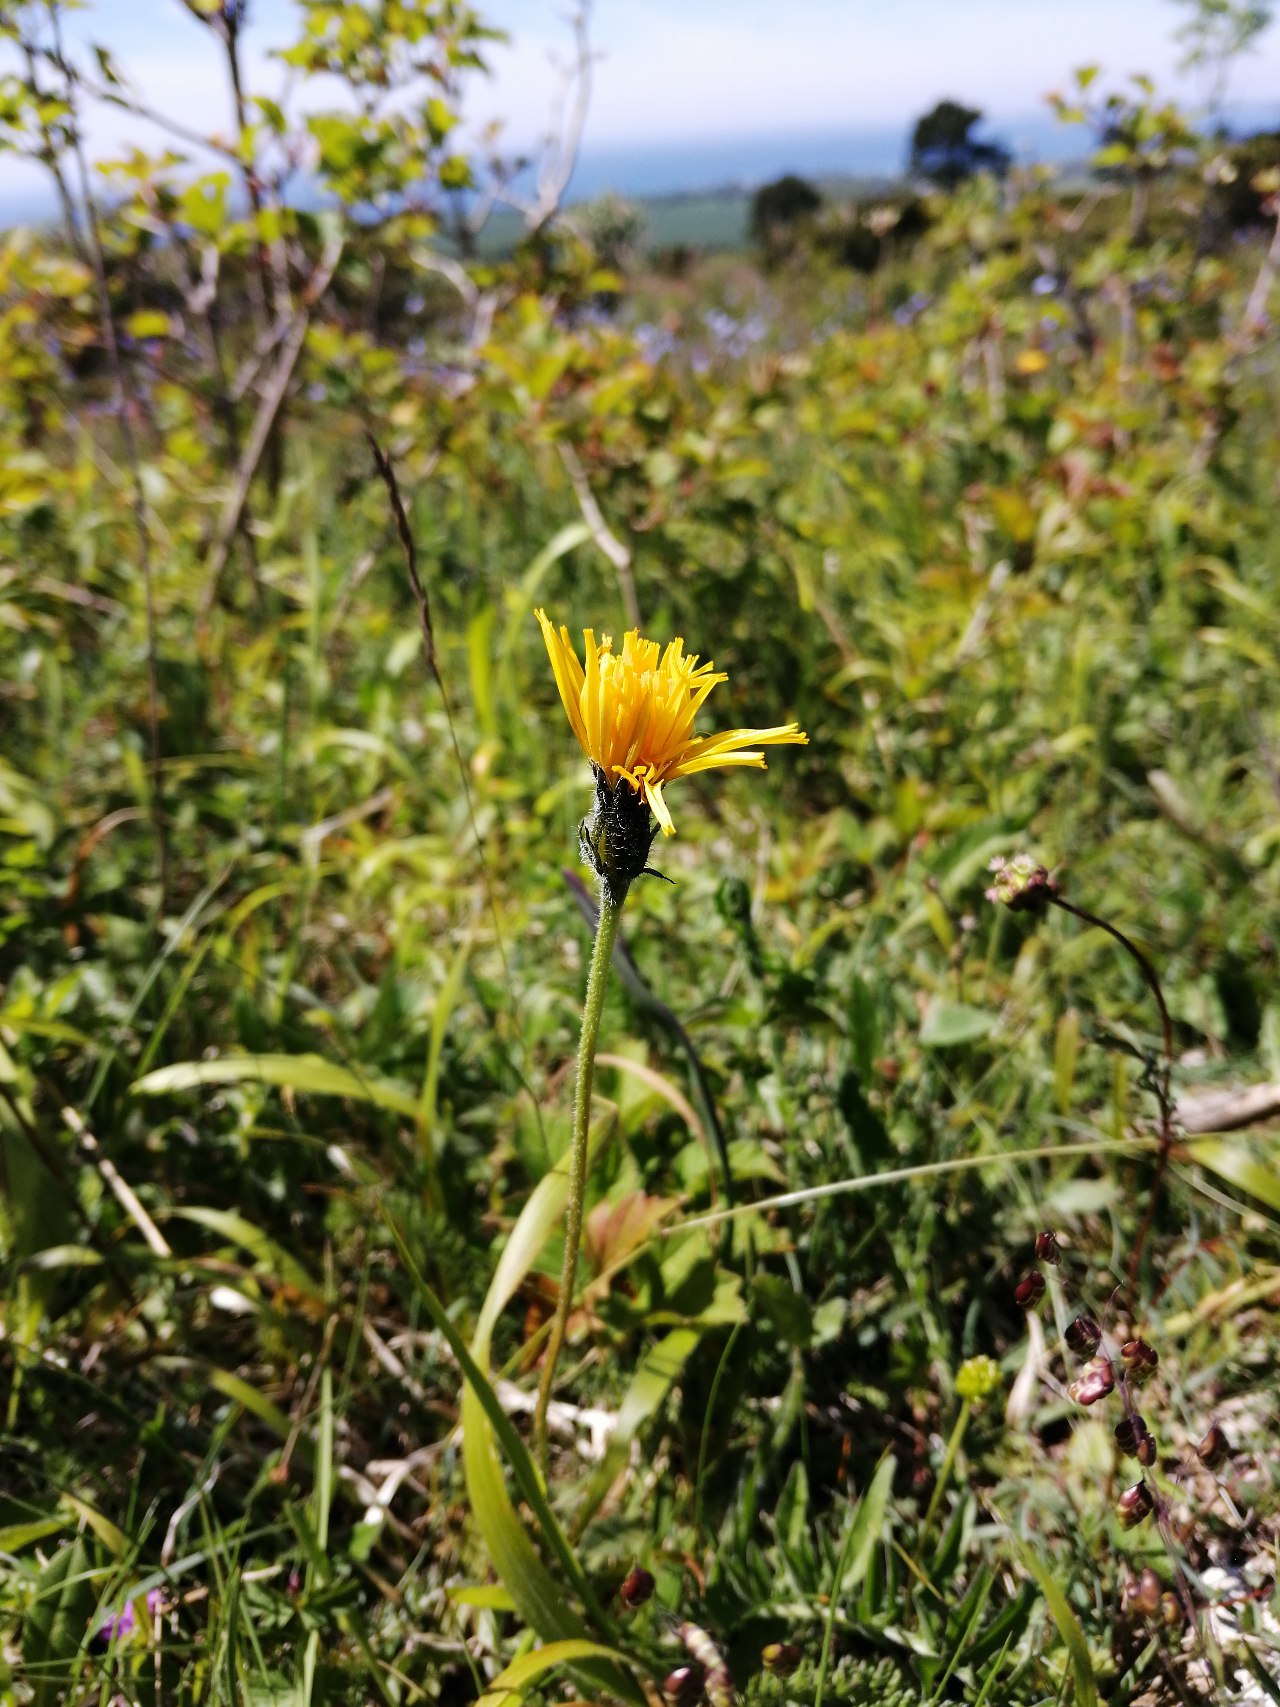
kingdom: Plantae
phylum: Tracheophyta
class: Magnoliopsida
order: Asterales
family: Asteraceae
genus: Leontodon
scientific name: Leontodon hispidus
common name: Stivhåret borst
